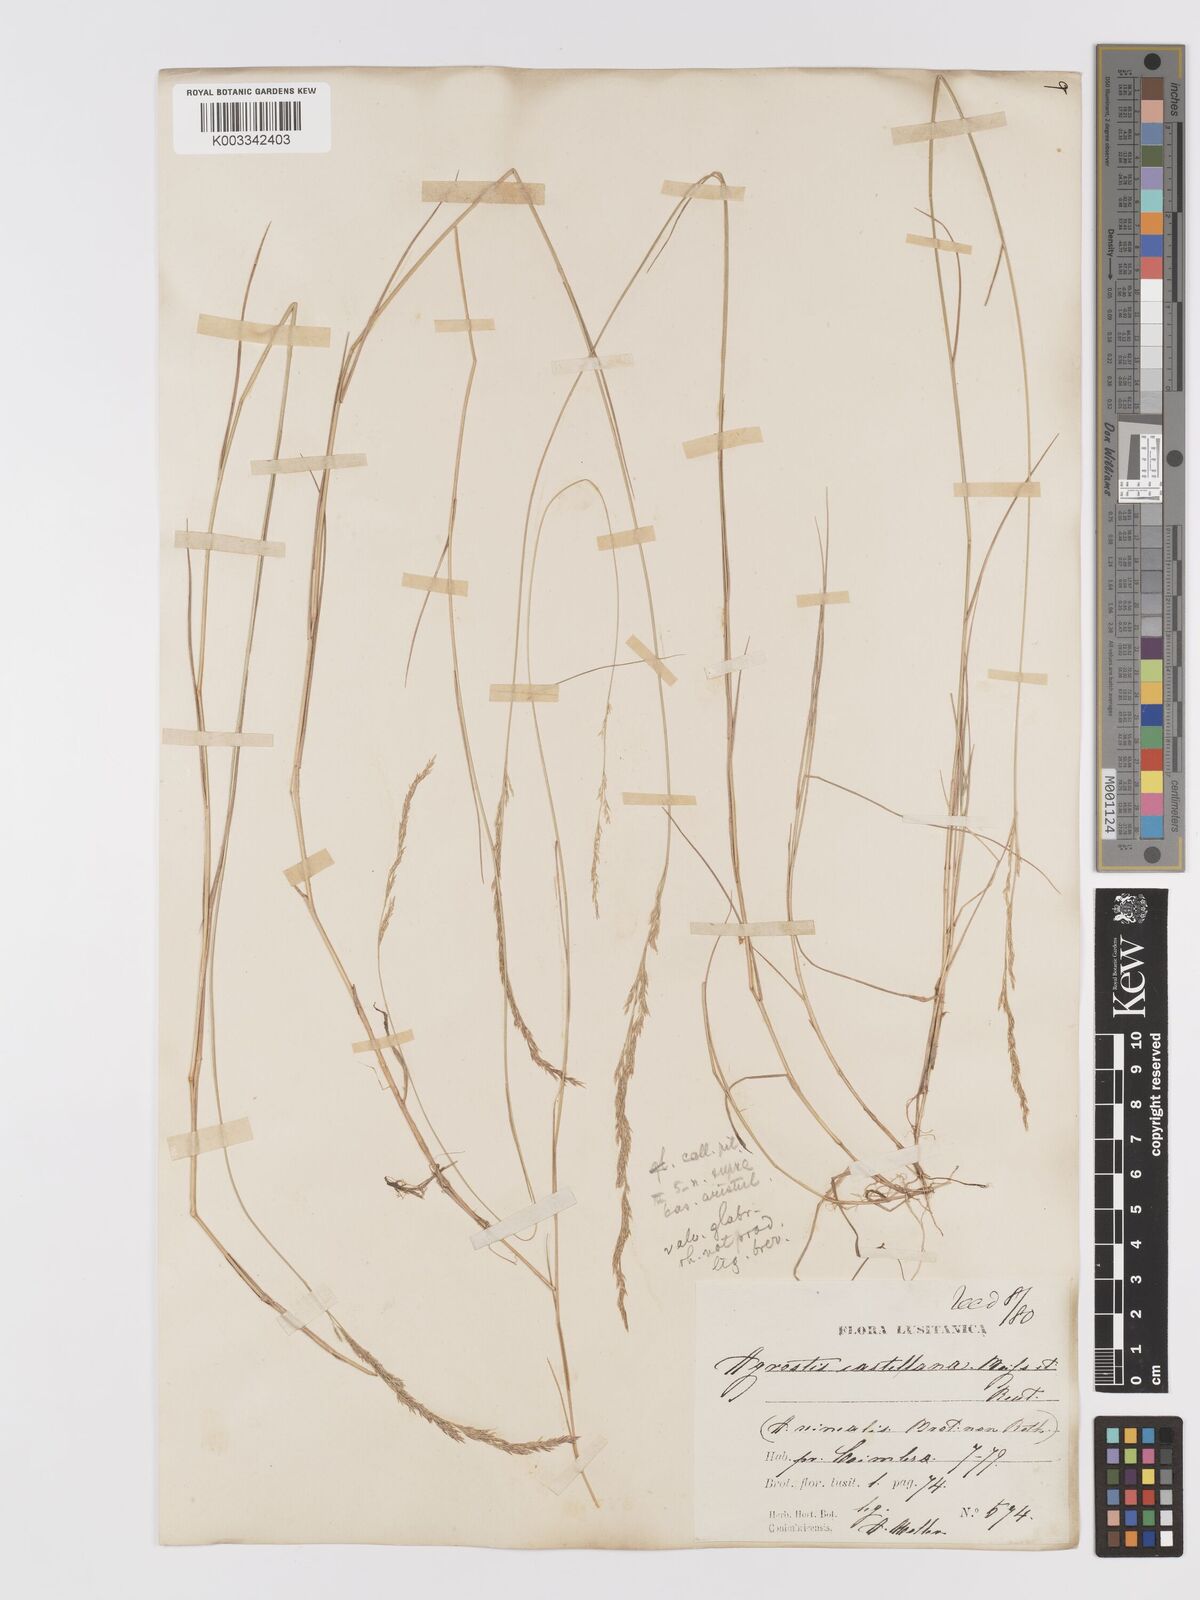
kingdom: Plantae
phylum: Tracheophyta
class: Liliopsida
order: Poales
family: Poaceae
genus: Agrostis
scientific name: Agrostis castellana
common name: Highland bent
